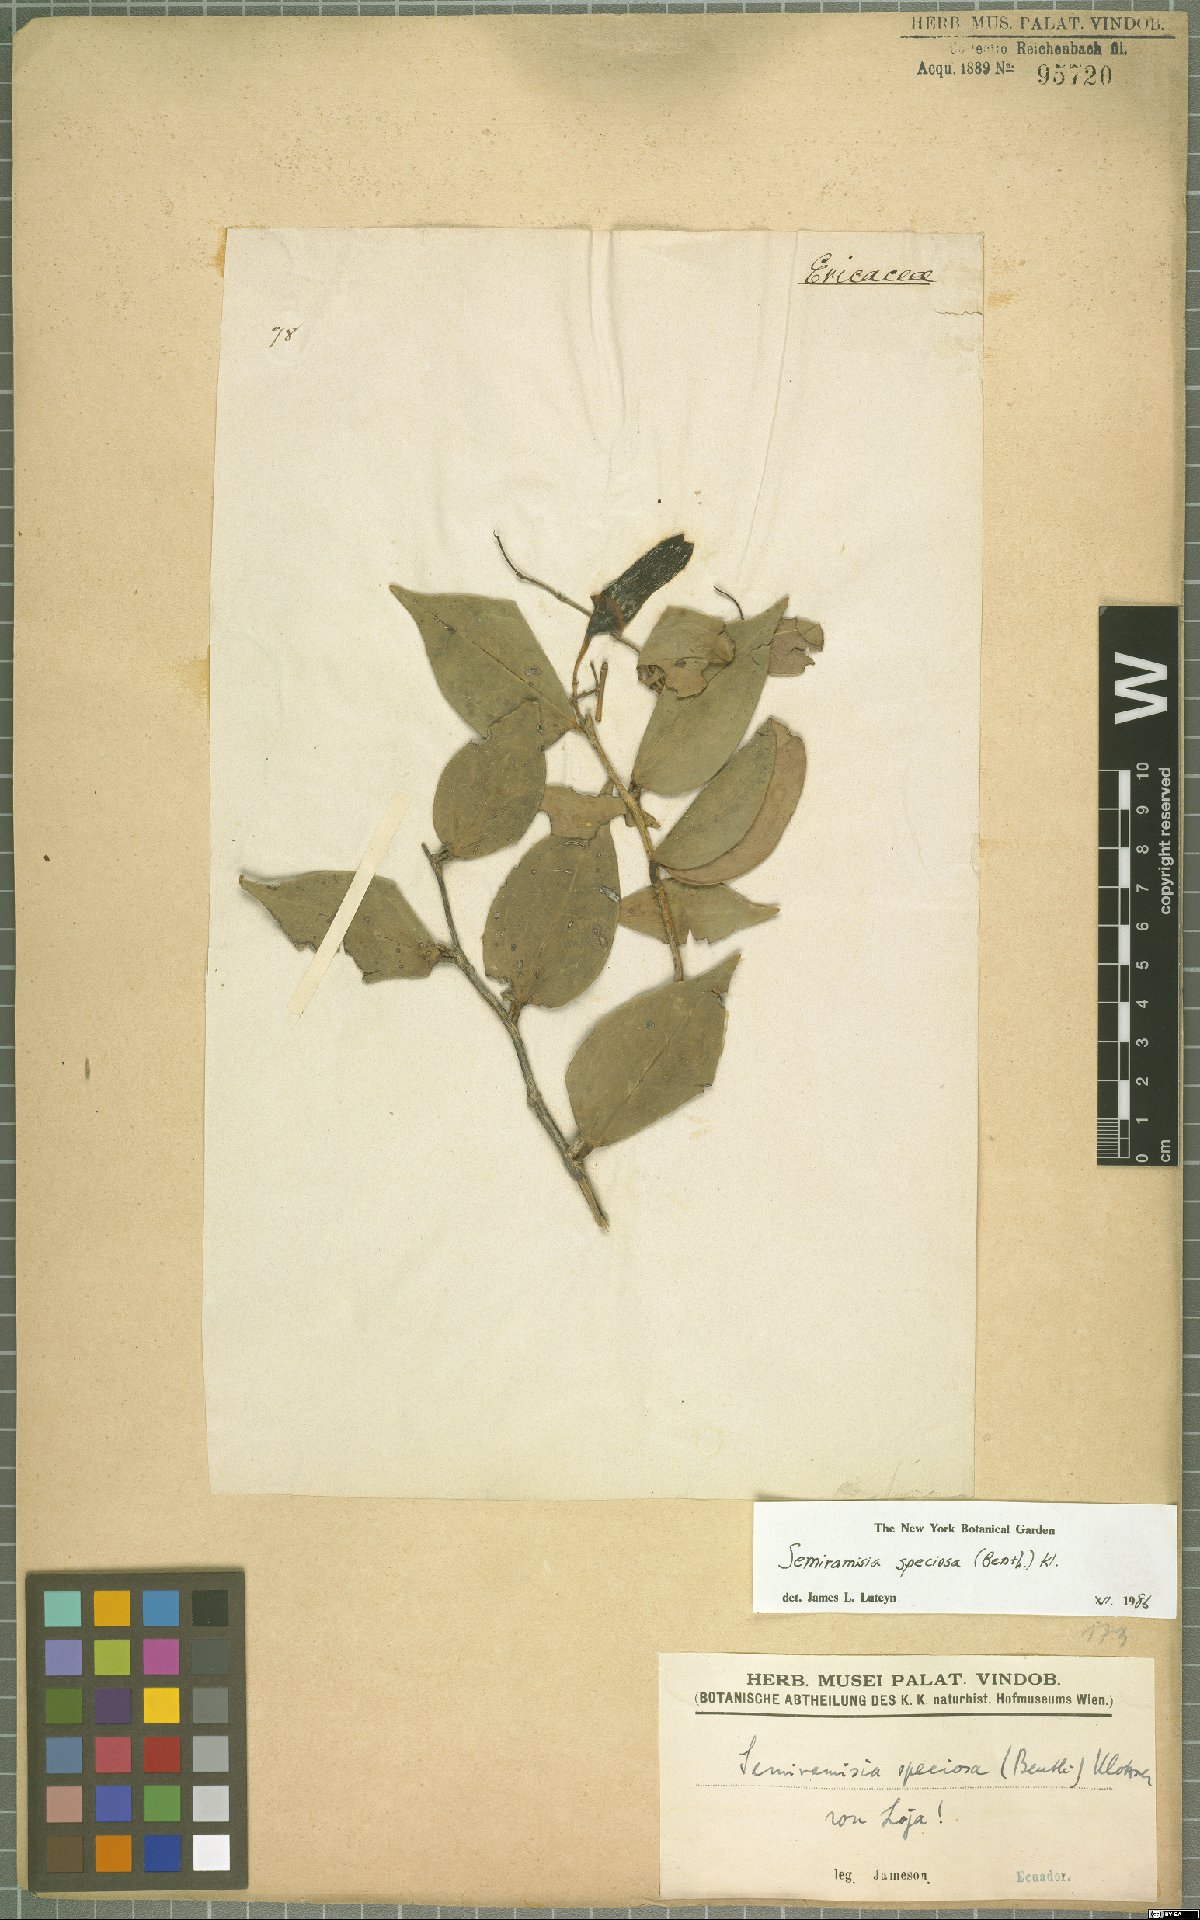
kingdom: Plantae
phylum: Tracheophyta
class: Magnoliopsida
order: Ericales
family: Ericaceae
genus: Semiramisia
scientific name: Semiramisia speciosa
